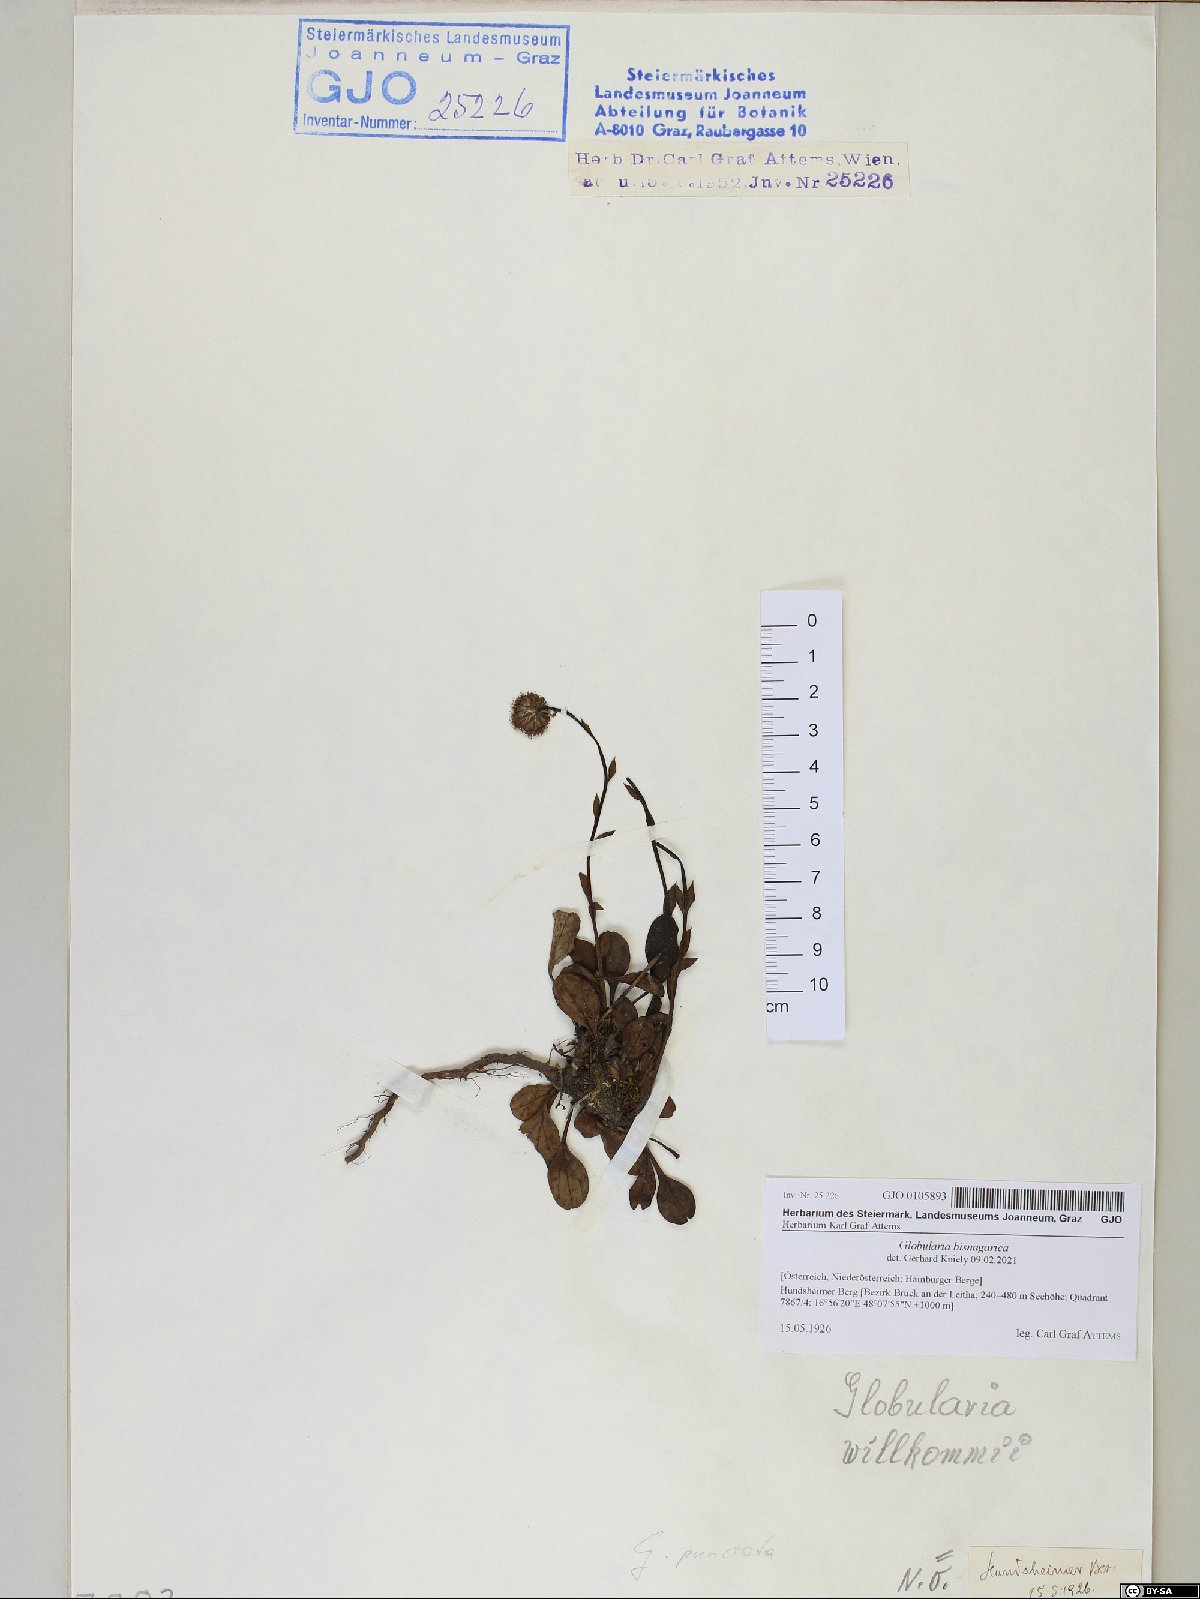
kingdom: Plantae
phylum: Tracheophyta
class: Magnoliopsida
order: Lamiales
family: Plantaginaceae
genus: Globularia
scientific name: Globularia bisnagarica
